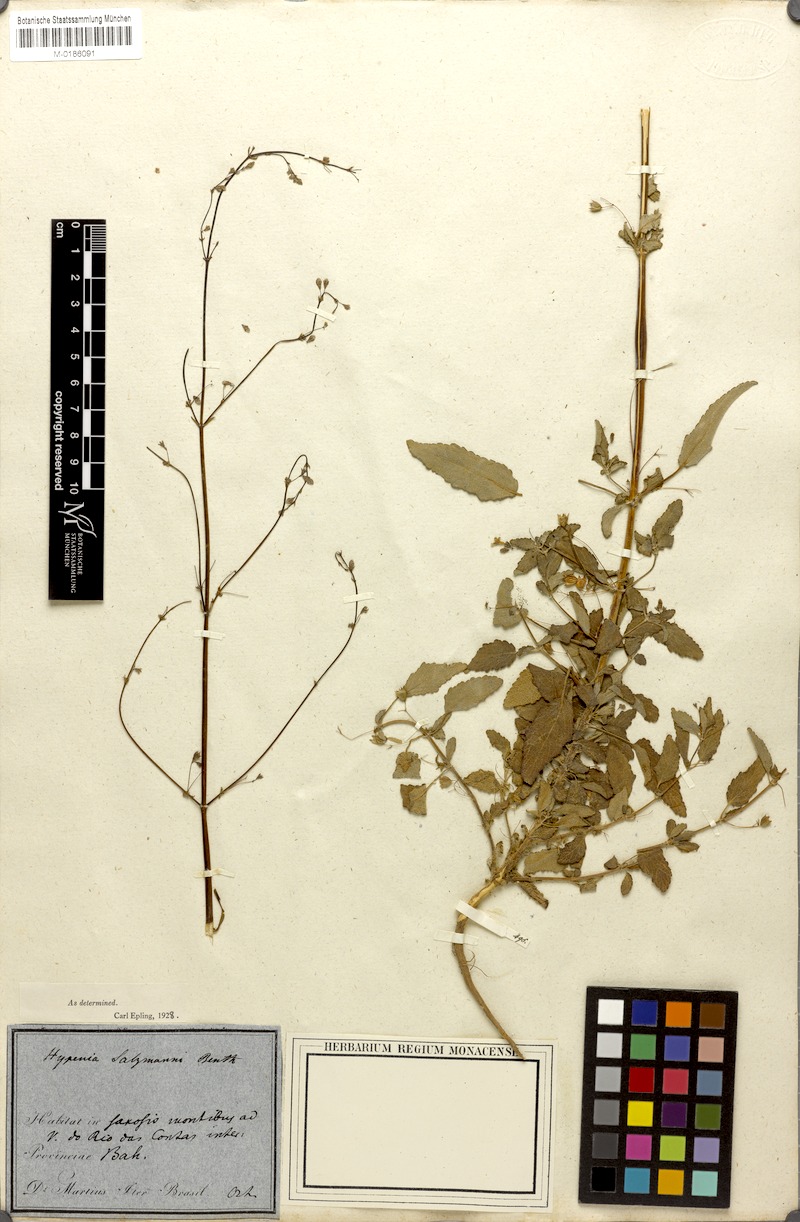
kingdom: Plantae
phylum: Tracheophyta
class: Magnoliopsida
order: Lamiales
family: Lamiaceae
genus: Hypenia
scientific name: Hypenia salzmannii
